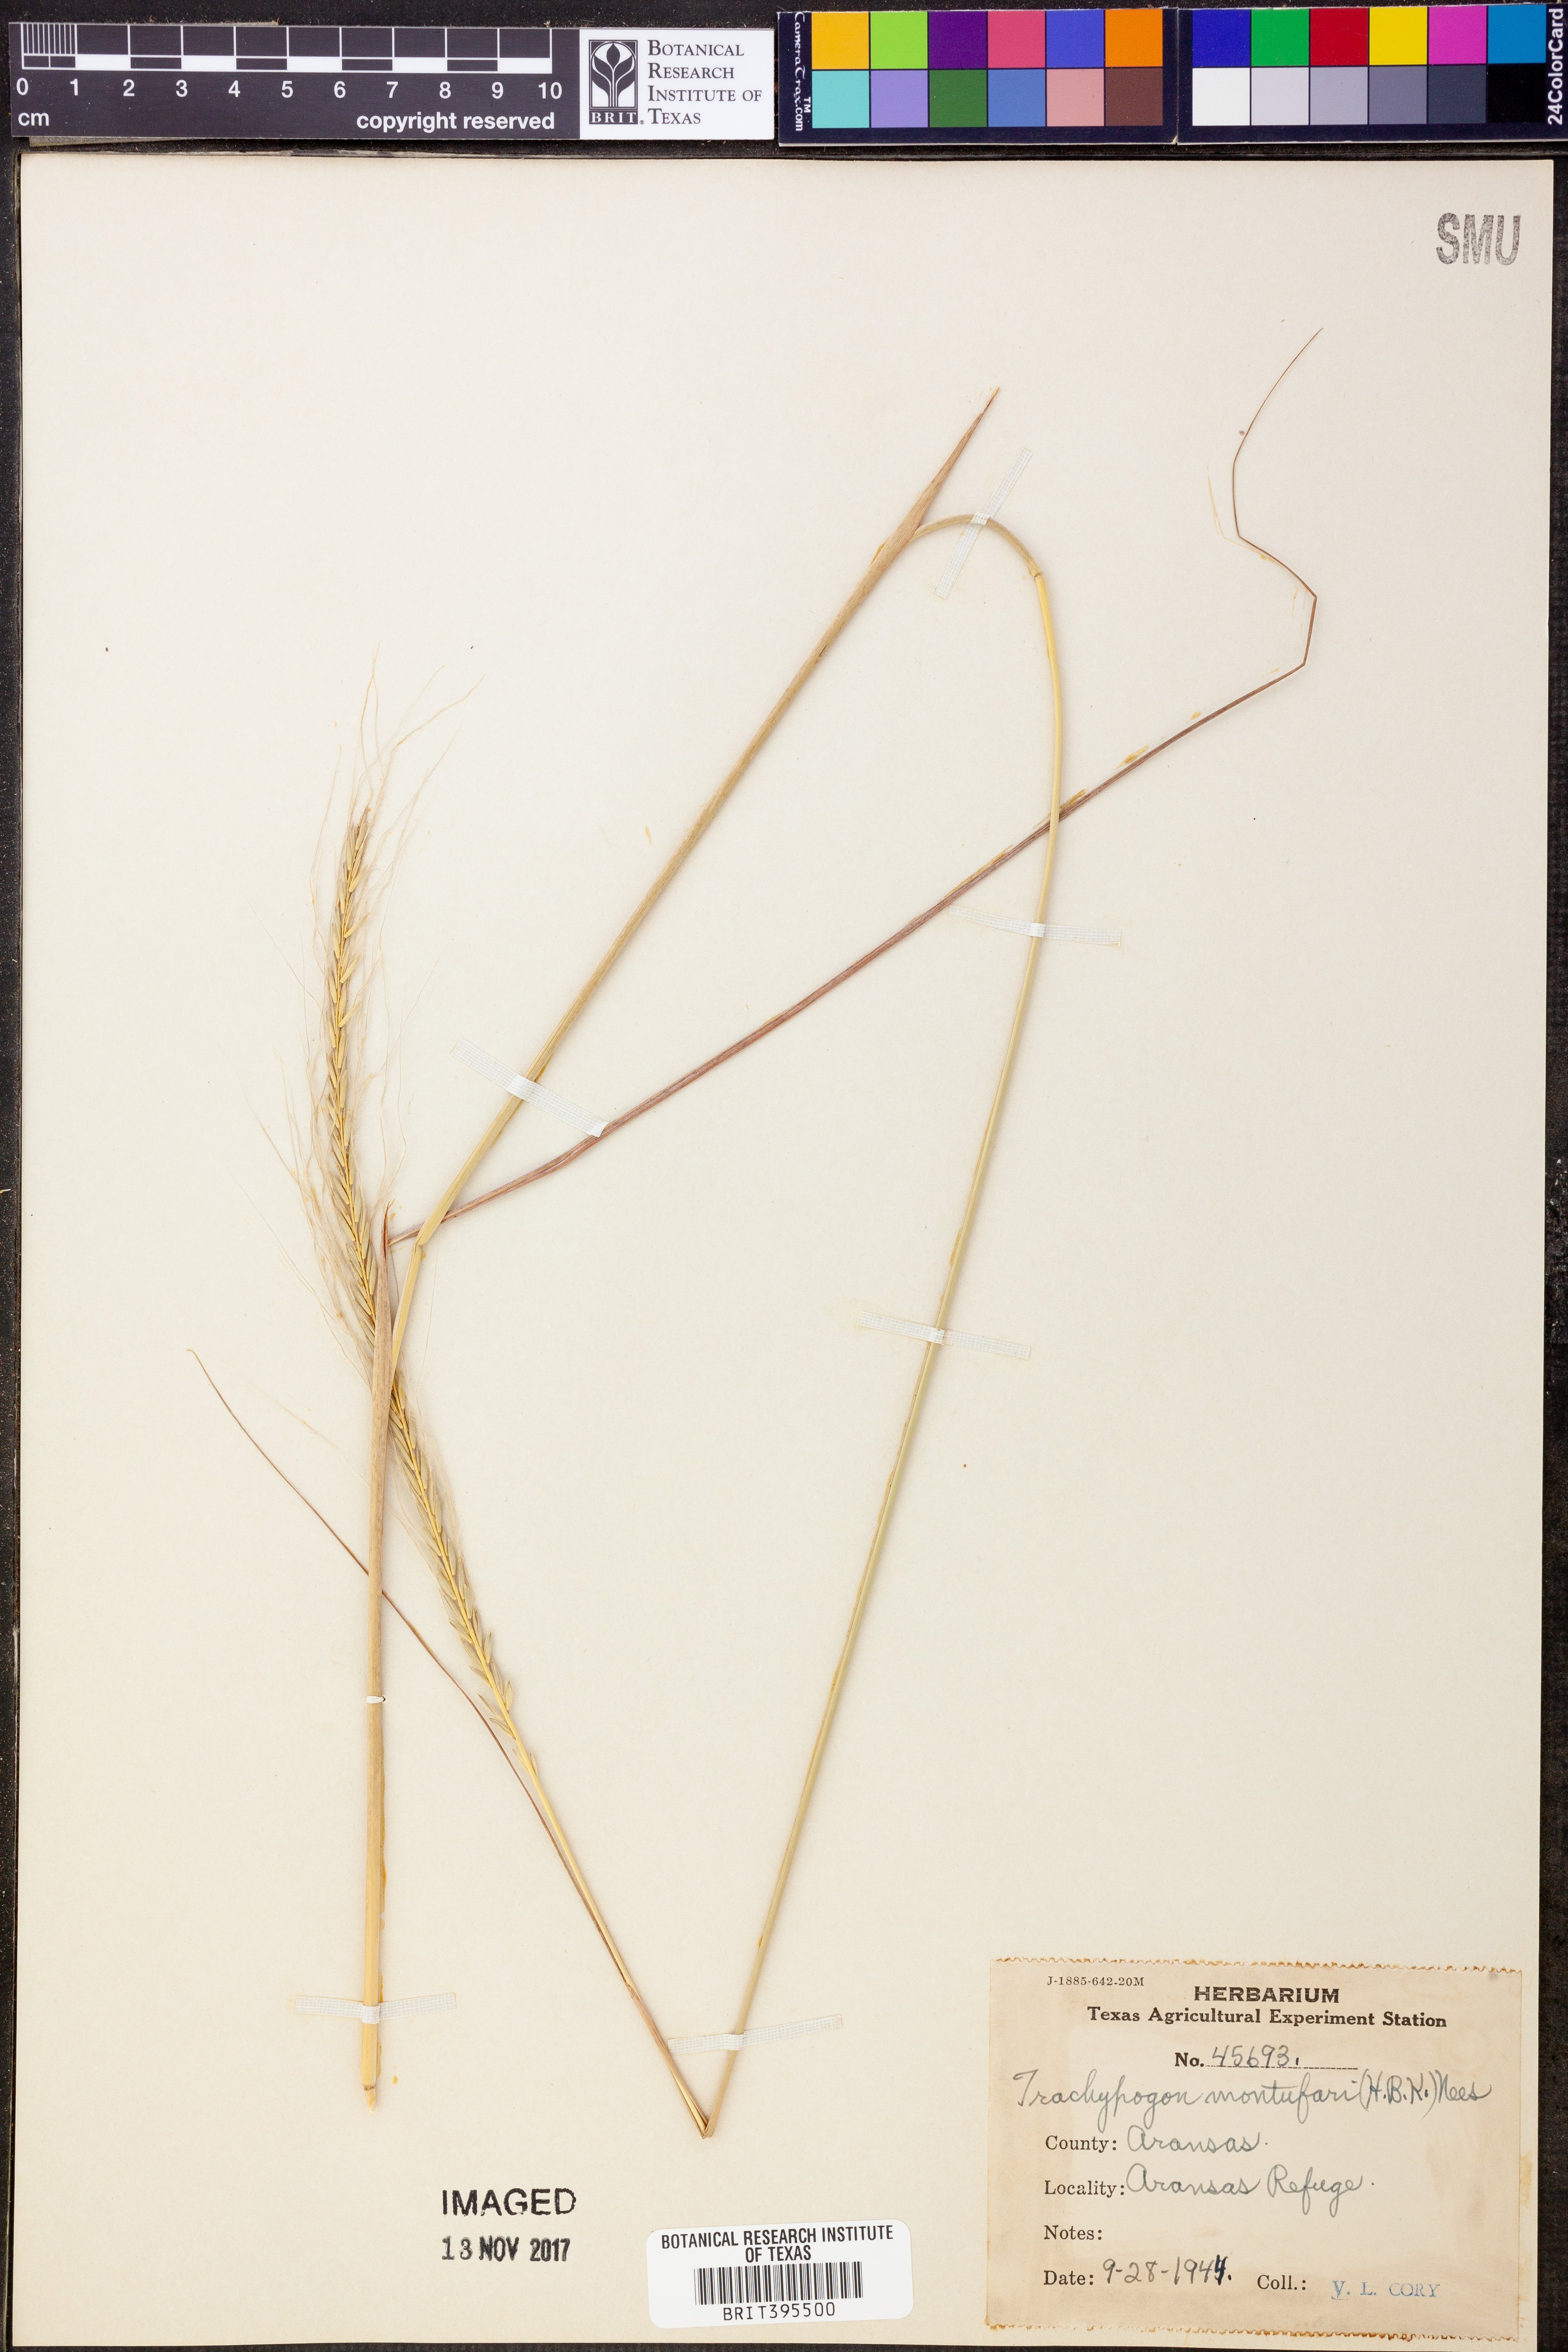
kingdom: Plantae
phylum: Tracheophyta
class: Liliopsida
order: Poales
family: Poaceae
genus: Trachypogon
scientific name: Trachypogon spicatus
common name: Crinkle-awn
